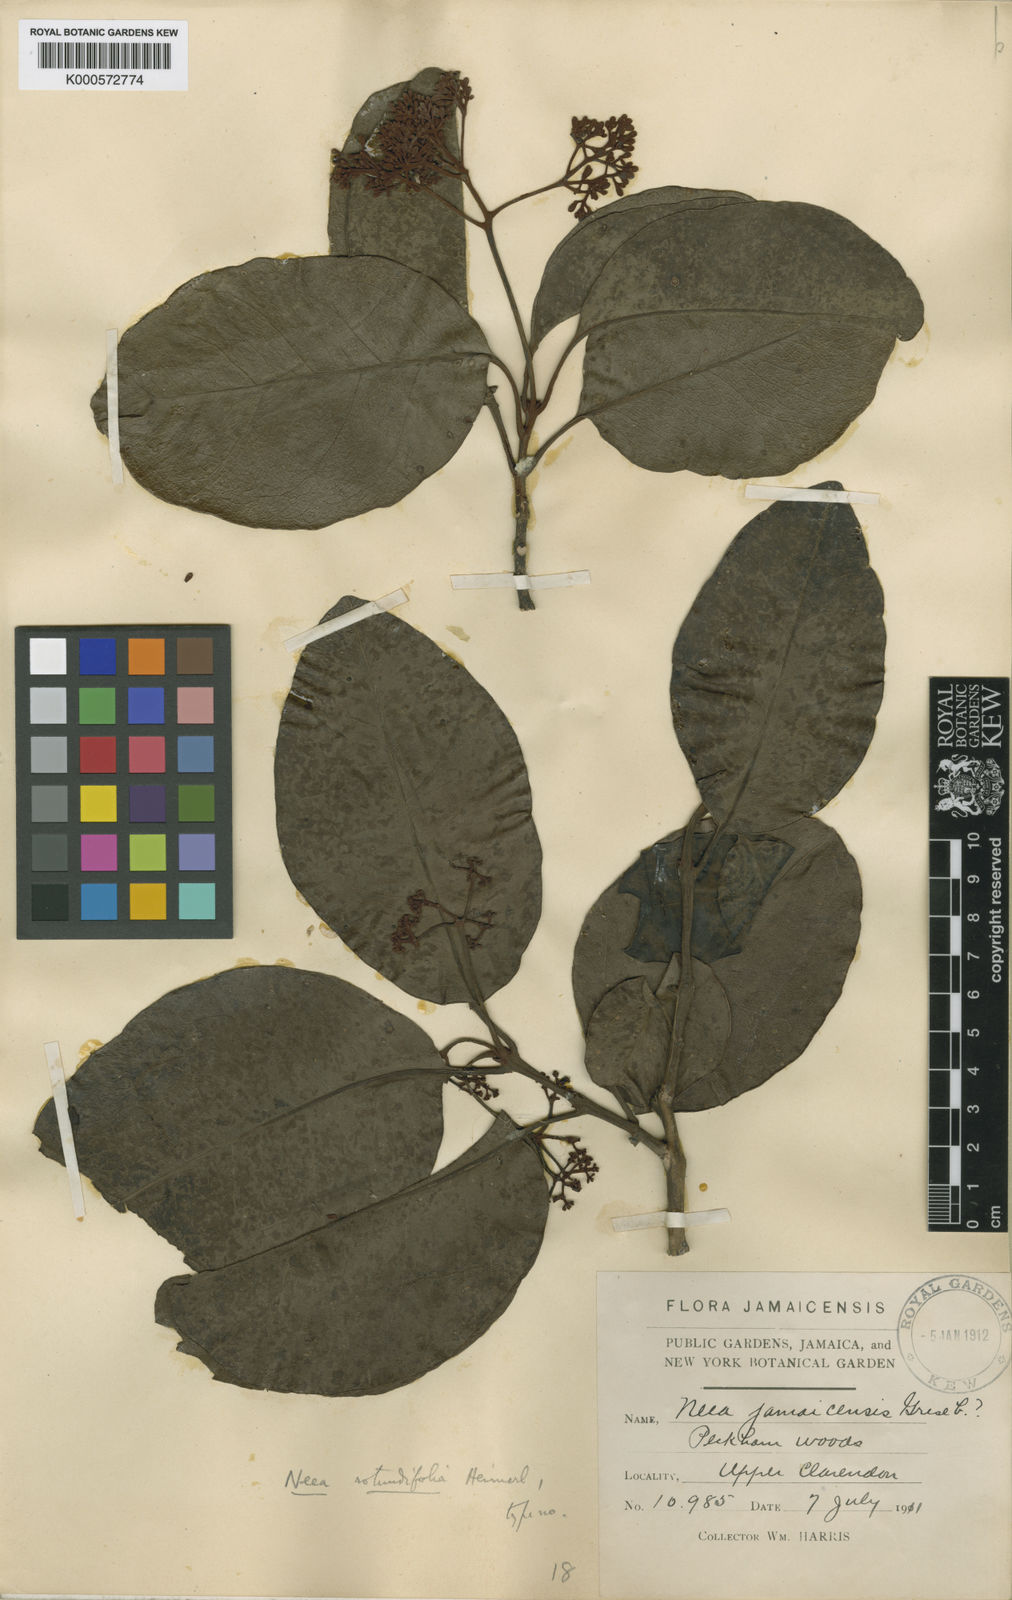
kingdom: Plantae
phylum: Tracheophyta
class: Magnoliopsida
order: Caryophyllales
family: Nyctaginaceae
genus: Pisonia
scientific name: Pisonia subcordata
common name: Mampoo
